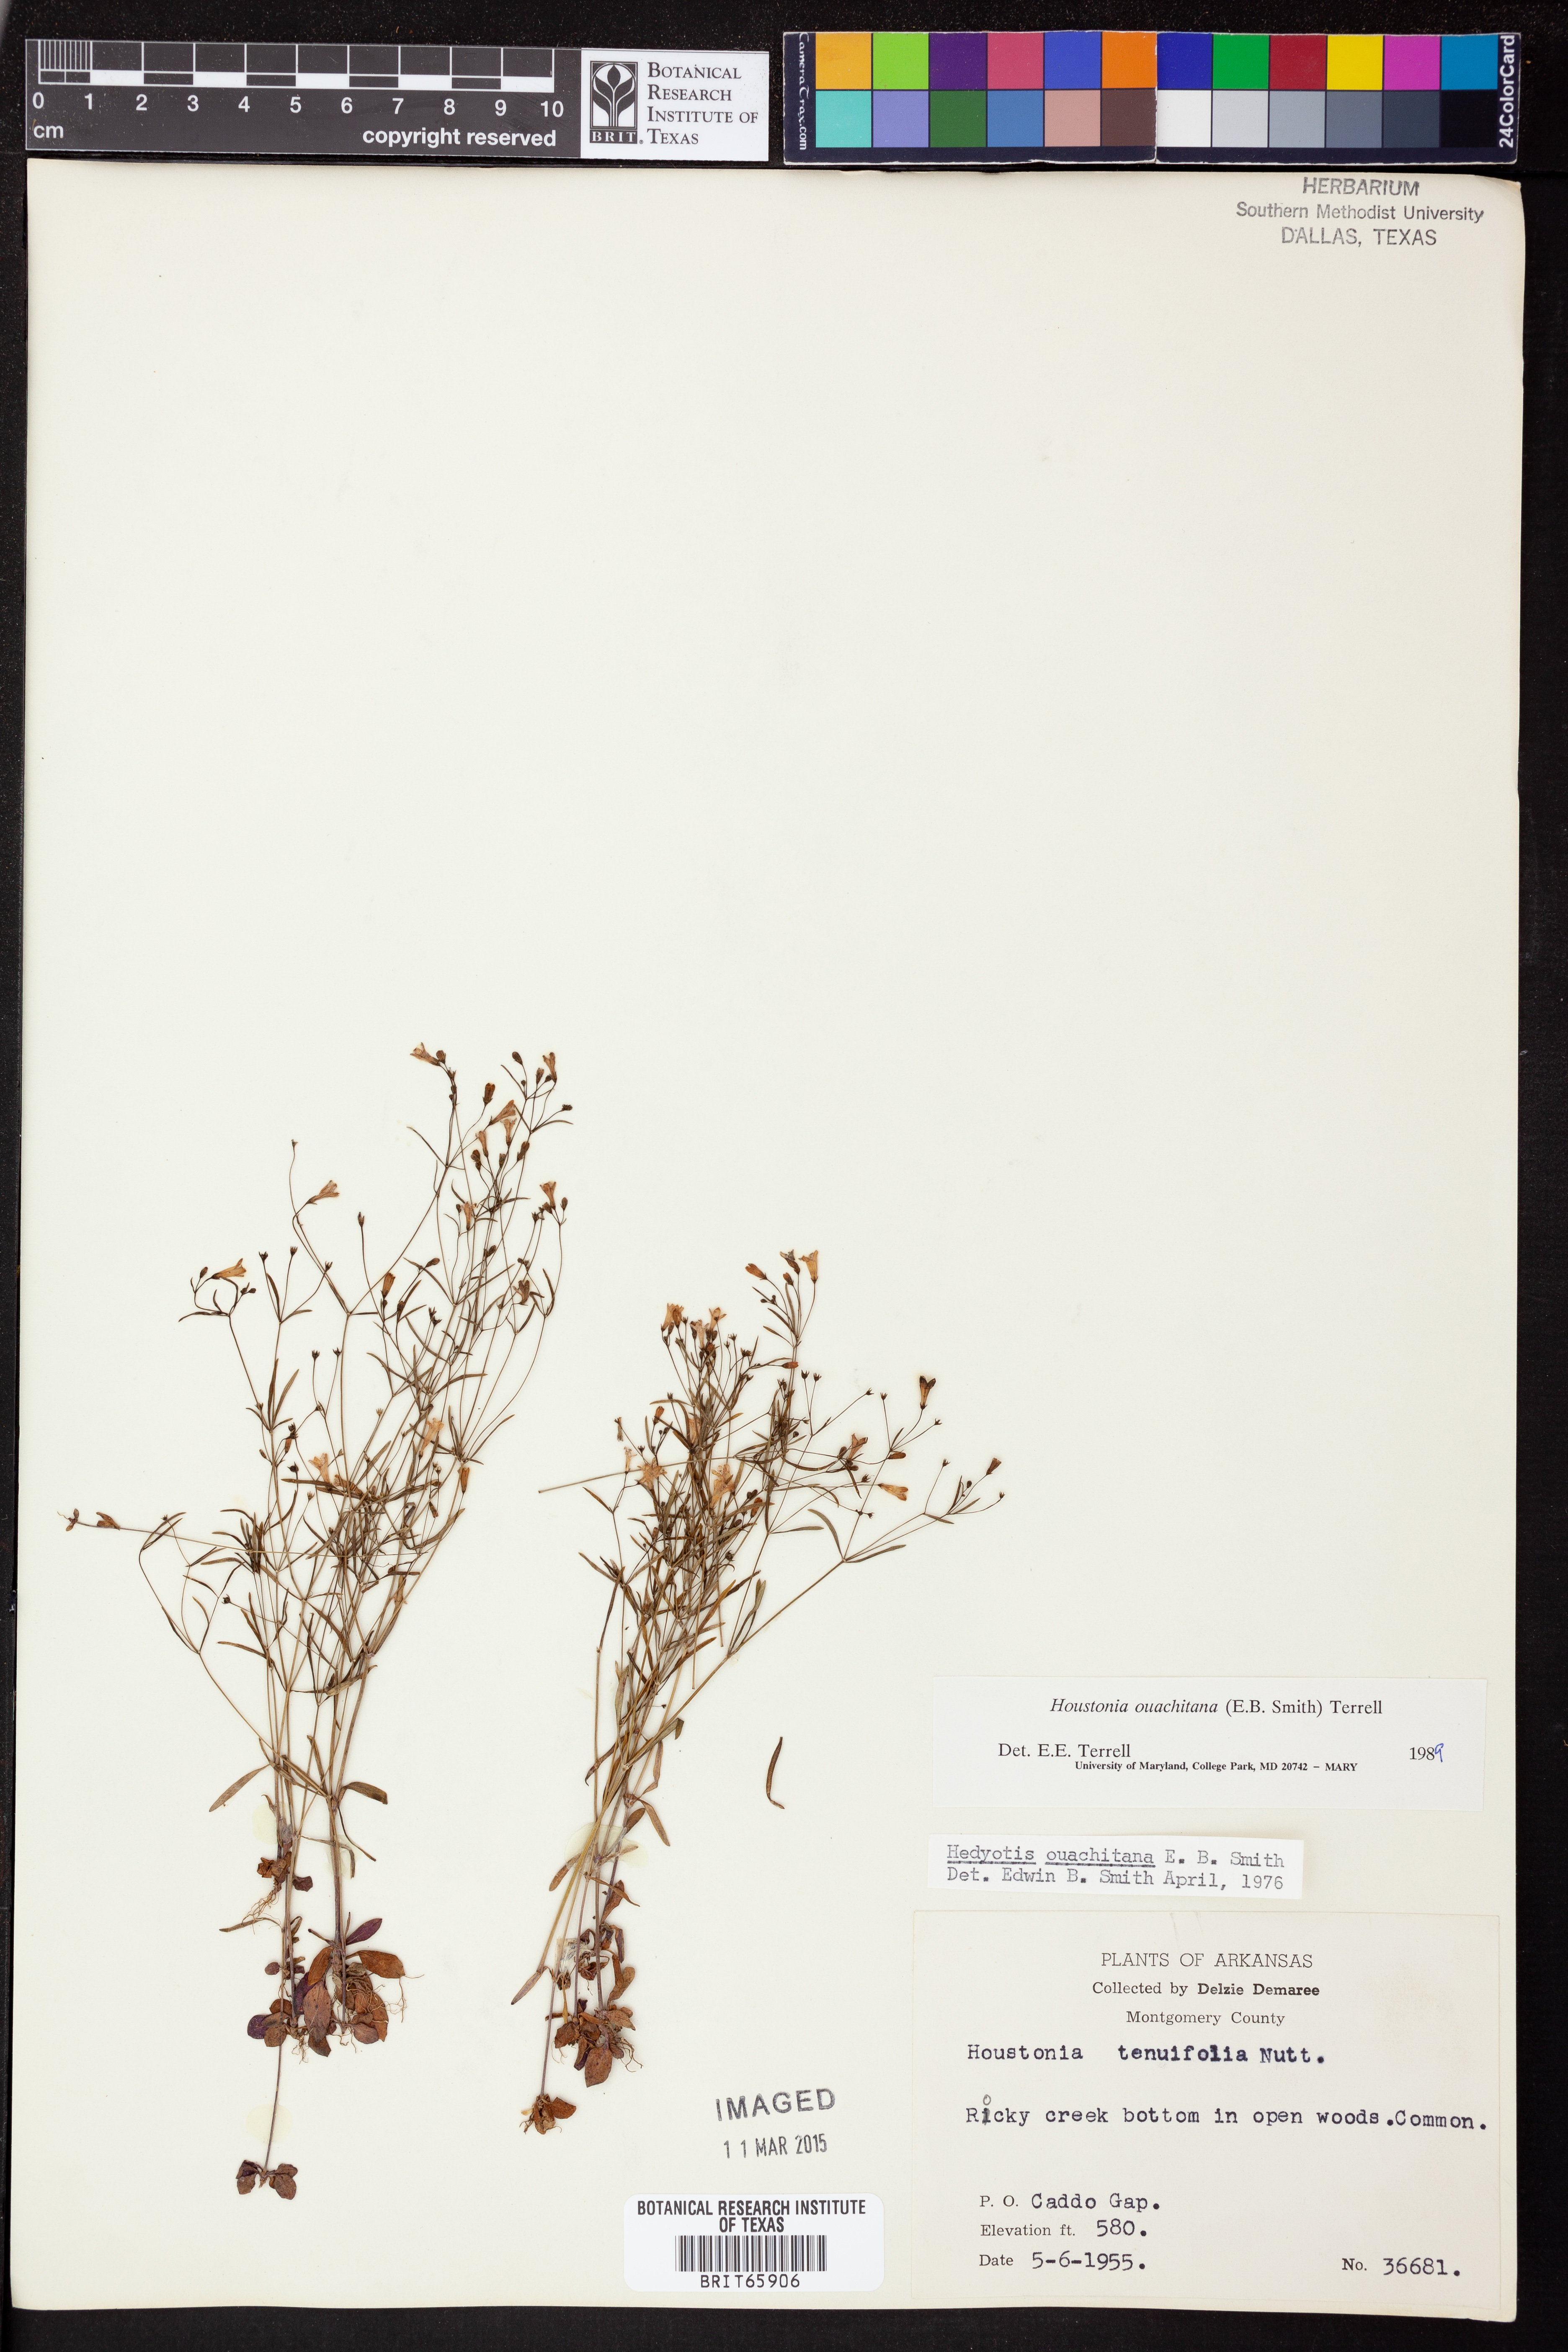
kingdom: Plantae
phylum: Tracheophyta
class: Magnoliopsida
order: Gentianales
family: Rubiaceae
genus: Houstonia
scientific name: Houstonia ouachitana
